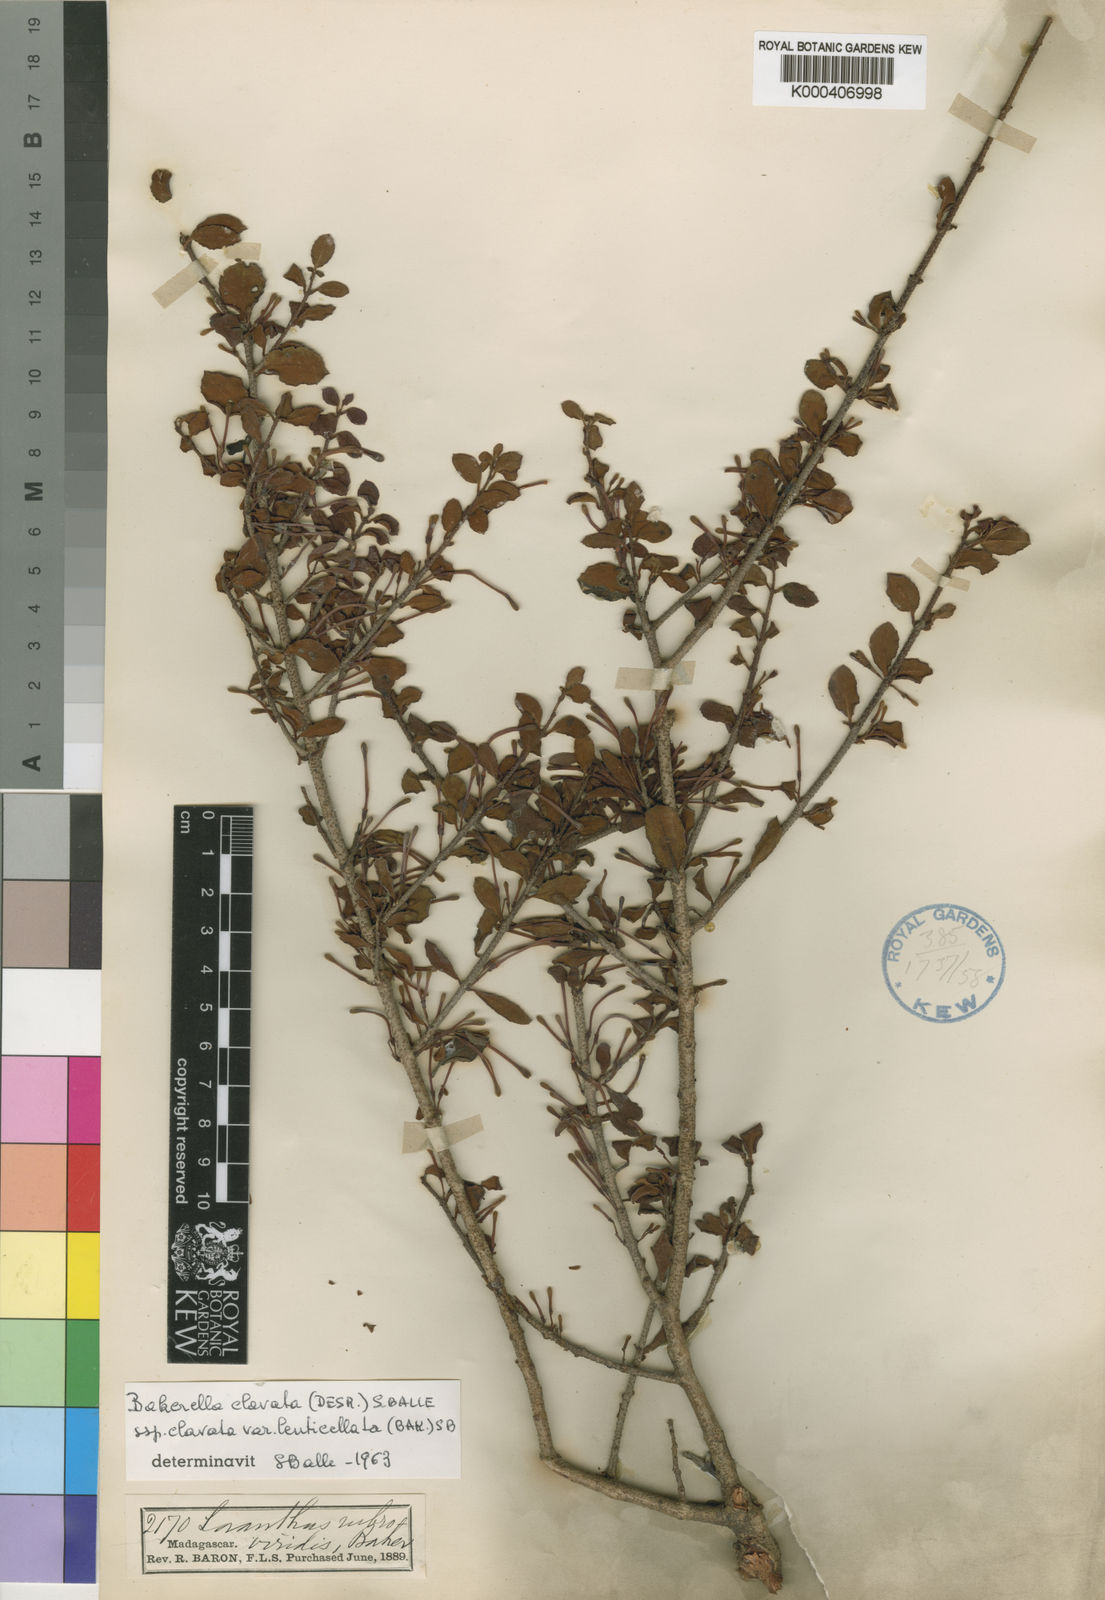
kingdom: Plantae
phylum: Tracheophyta
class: Magnoliopsida
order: Santalales
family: Loranthaceae
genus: Bakerella
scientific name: Bakerella clavata
